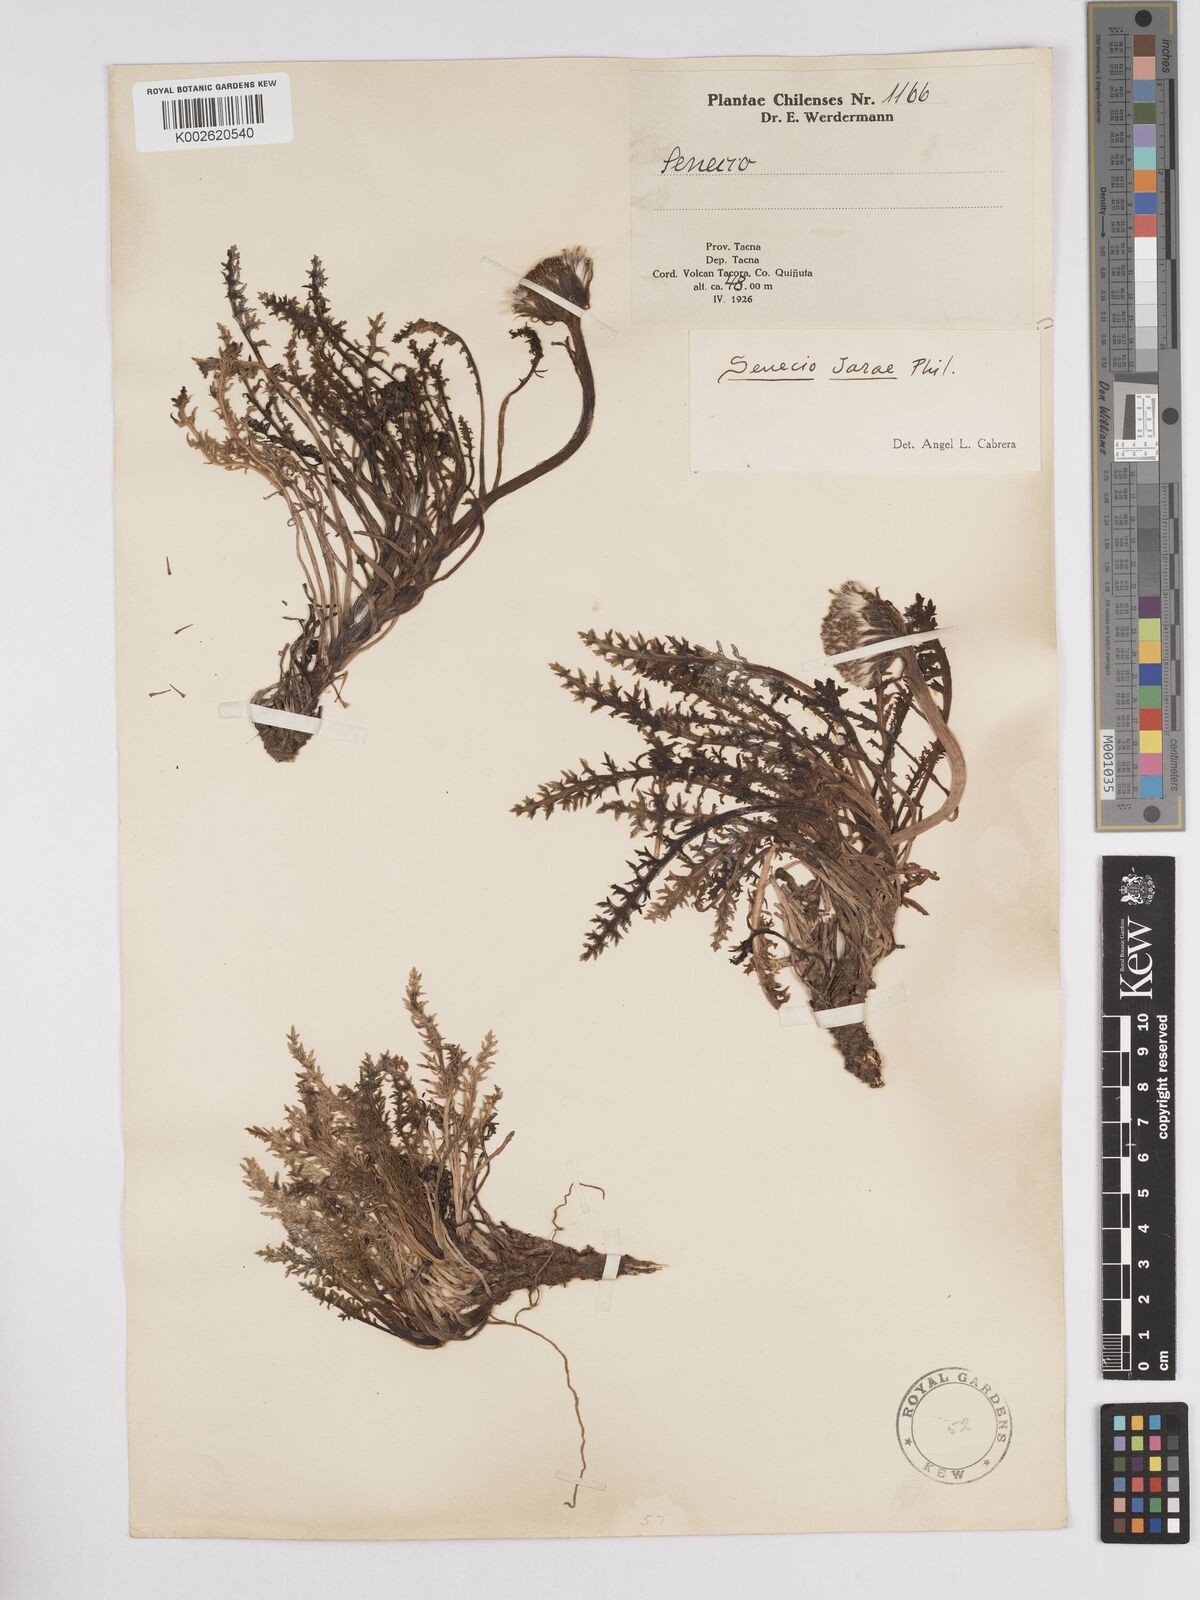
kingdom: Plantae
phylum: Tracheophyta
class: Magnoliopsida
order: Asterales
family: Asteraceae
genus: Senecio
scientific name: Senecio jarae
